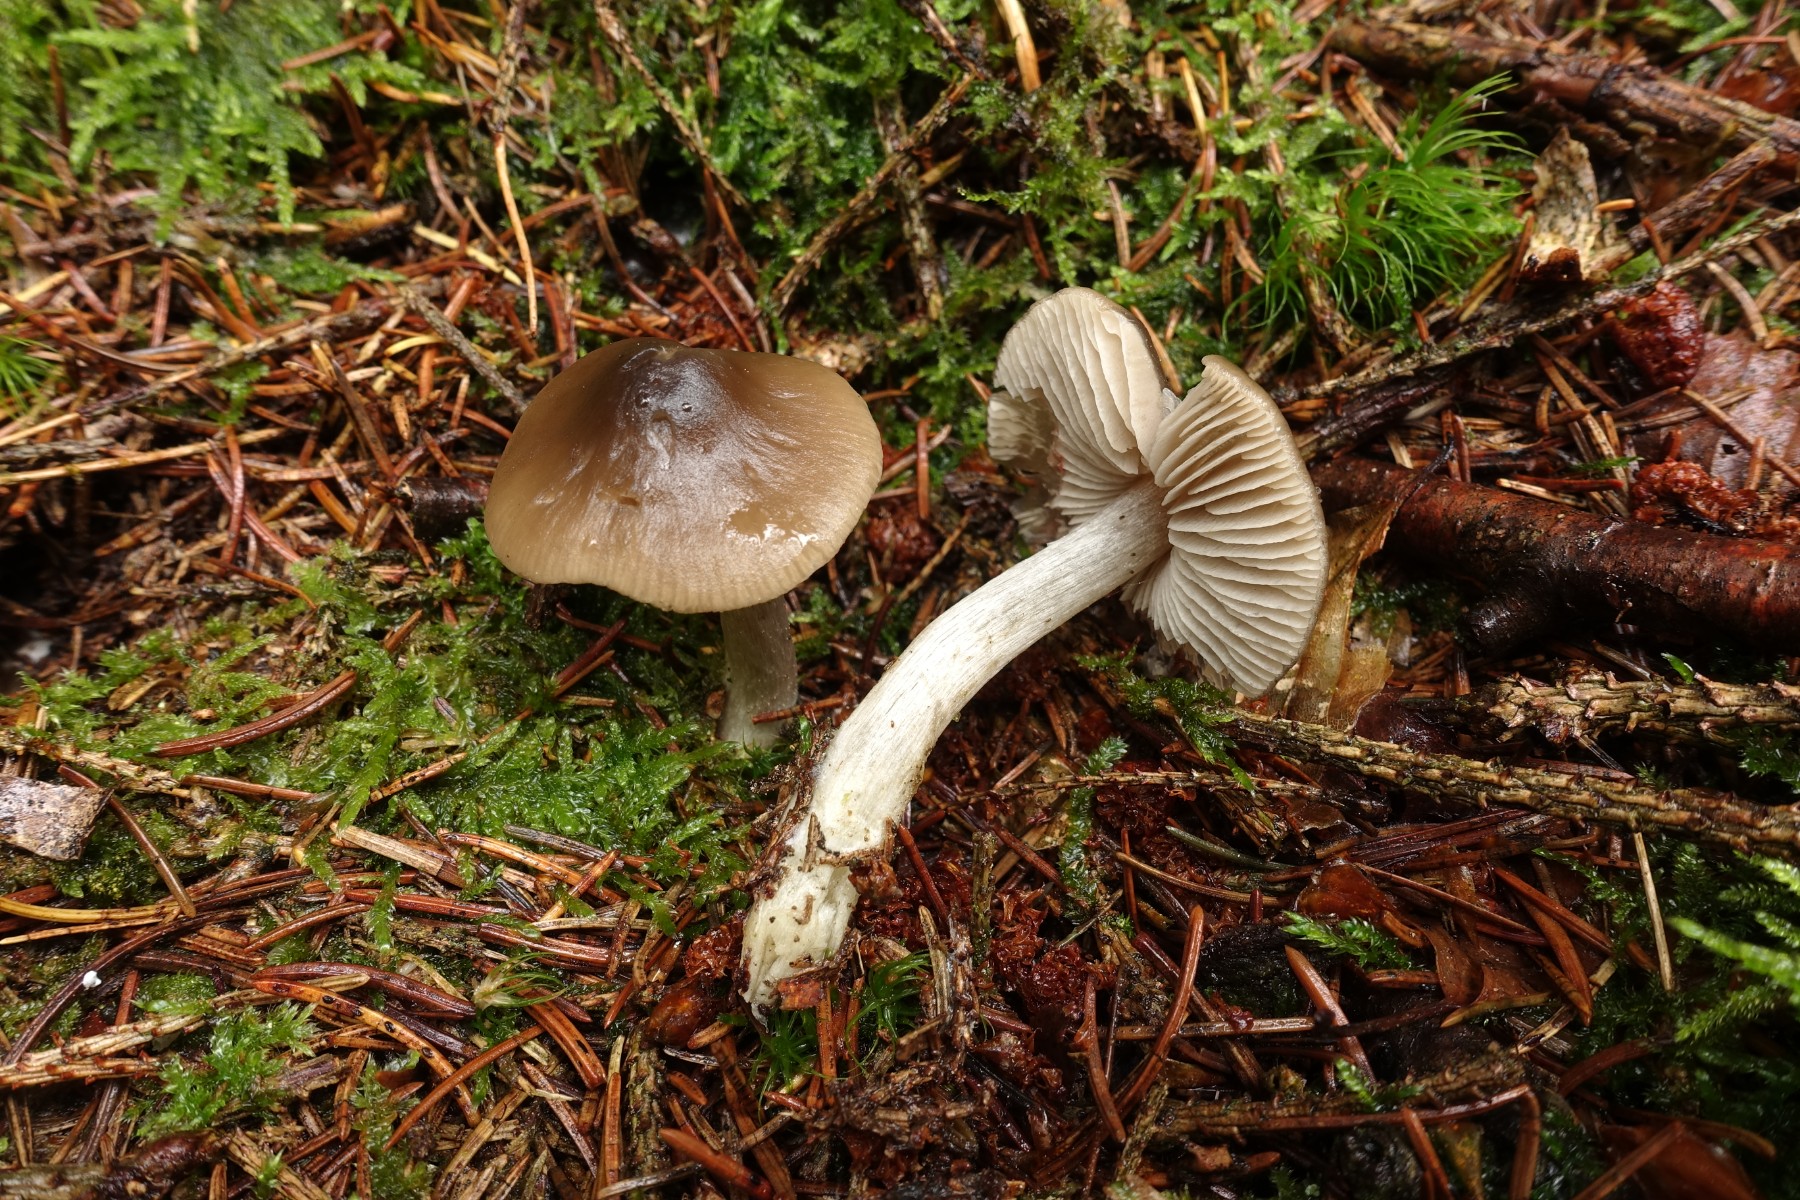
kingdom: Fungi
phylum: Basidiomycota
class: Agaricomycetes
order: Agaricales
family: Entolomataceae
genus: Entocybe
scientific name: Entocybe turbida
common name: plantage-rødblad
